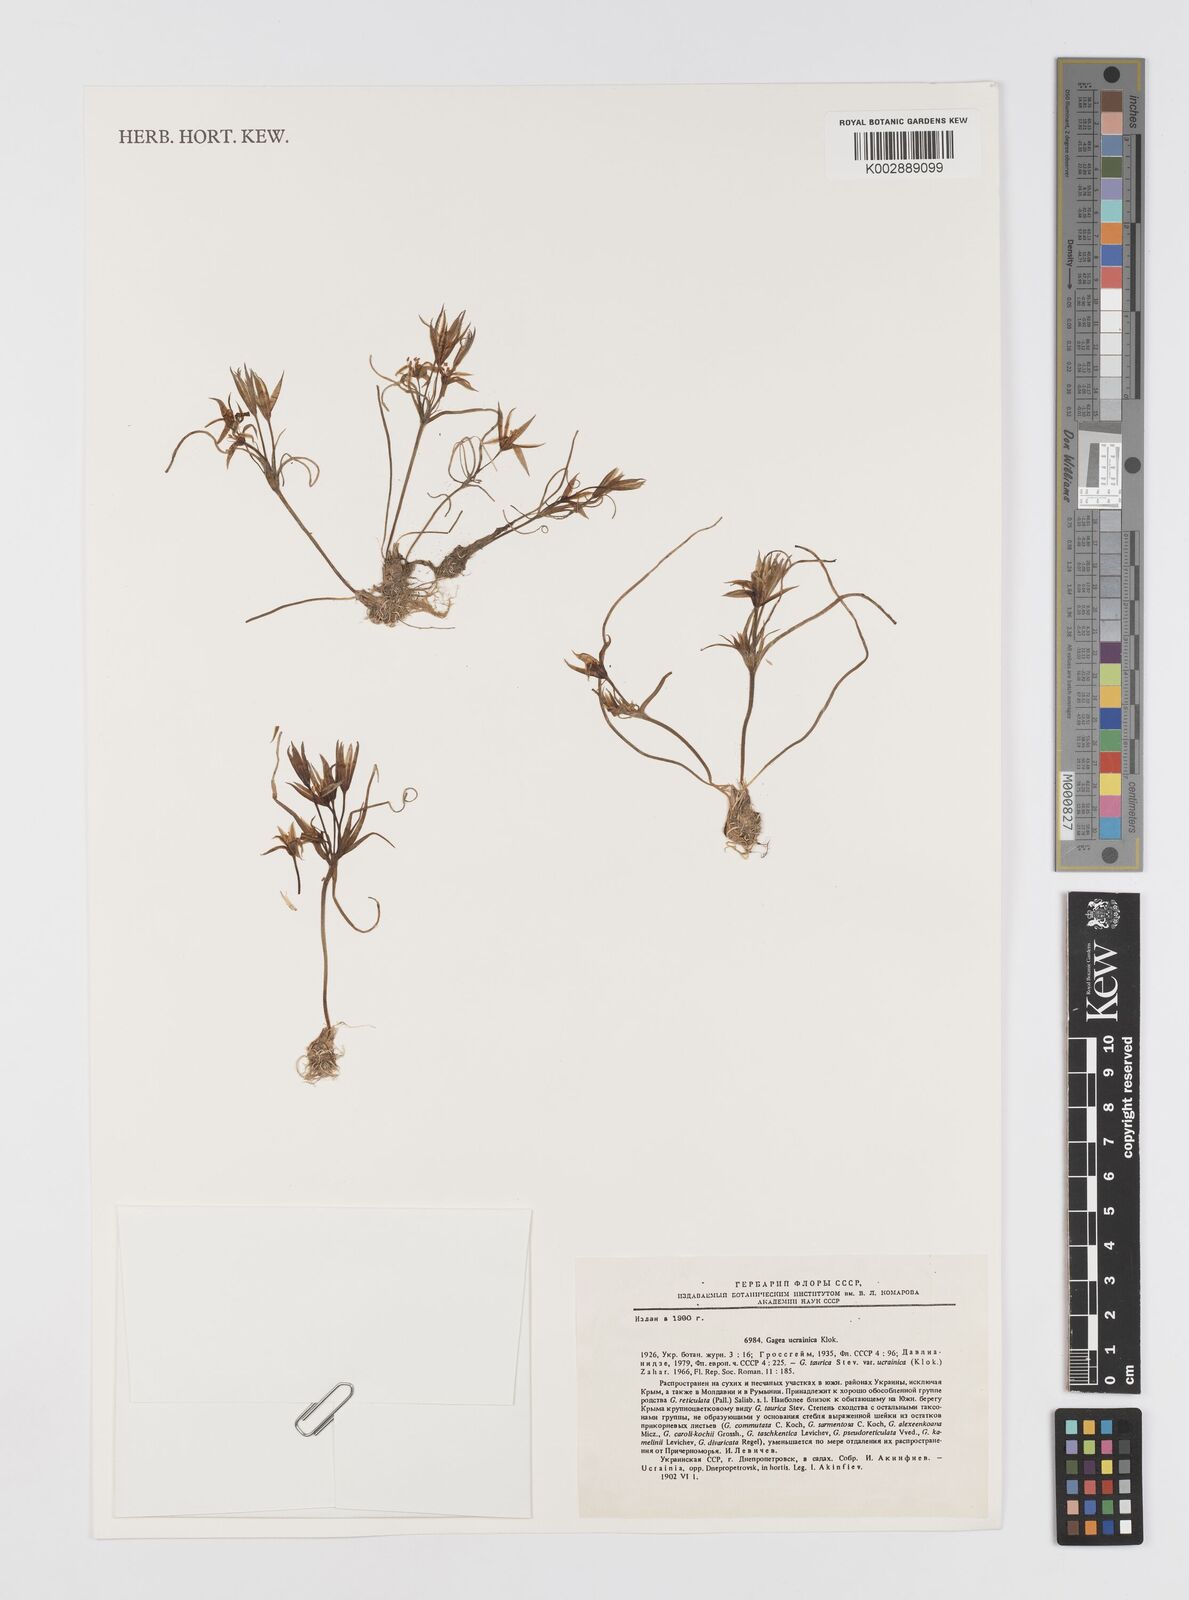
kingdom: Plantae
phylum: Tracheophyta
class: Liliopsida
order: Liliales
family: Liliaceae
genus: Gagea
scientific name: Gagea ucrainica
